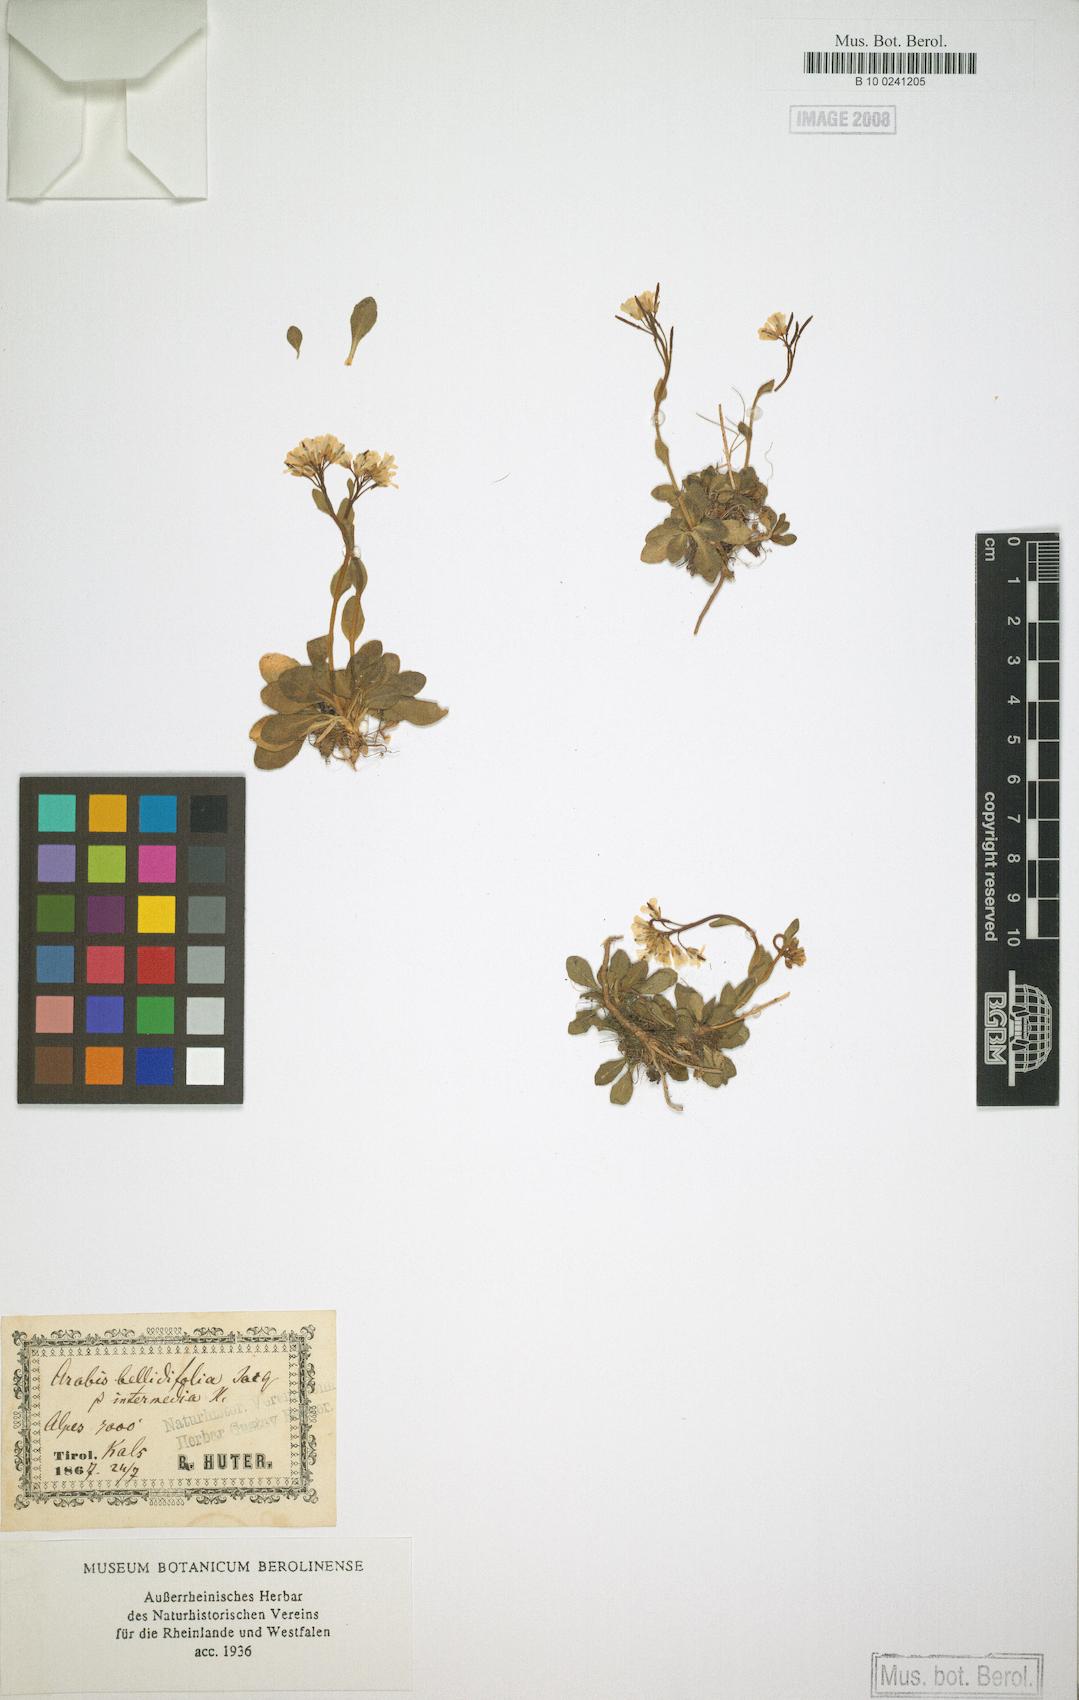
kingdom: Plantae
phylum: Tracheophyta
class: Magnoliopsida
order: Brassicales
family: Brassicaceae
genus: Arabis
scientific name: Arabis soyeri
